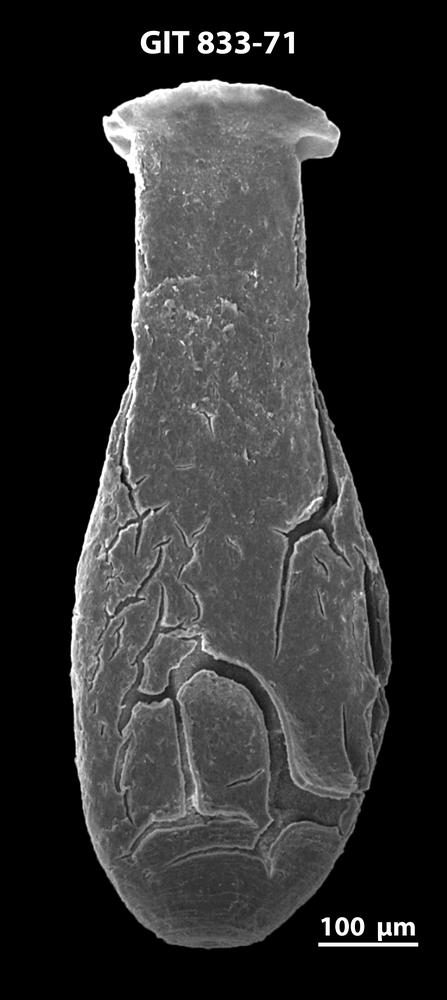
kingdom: Animalia
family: Lagenochitinidae
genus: Lagenochitina
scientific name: Lagenochitina megaesthonica
